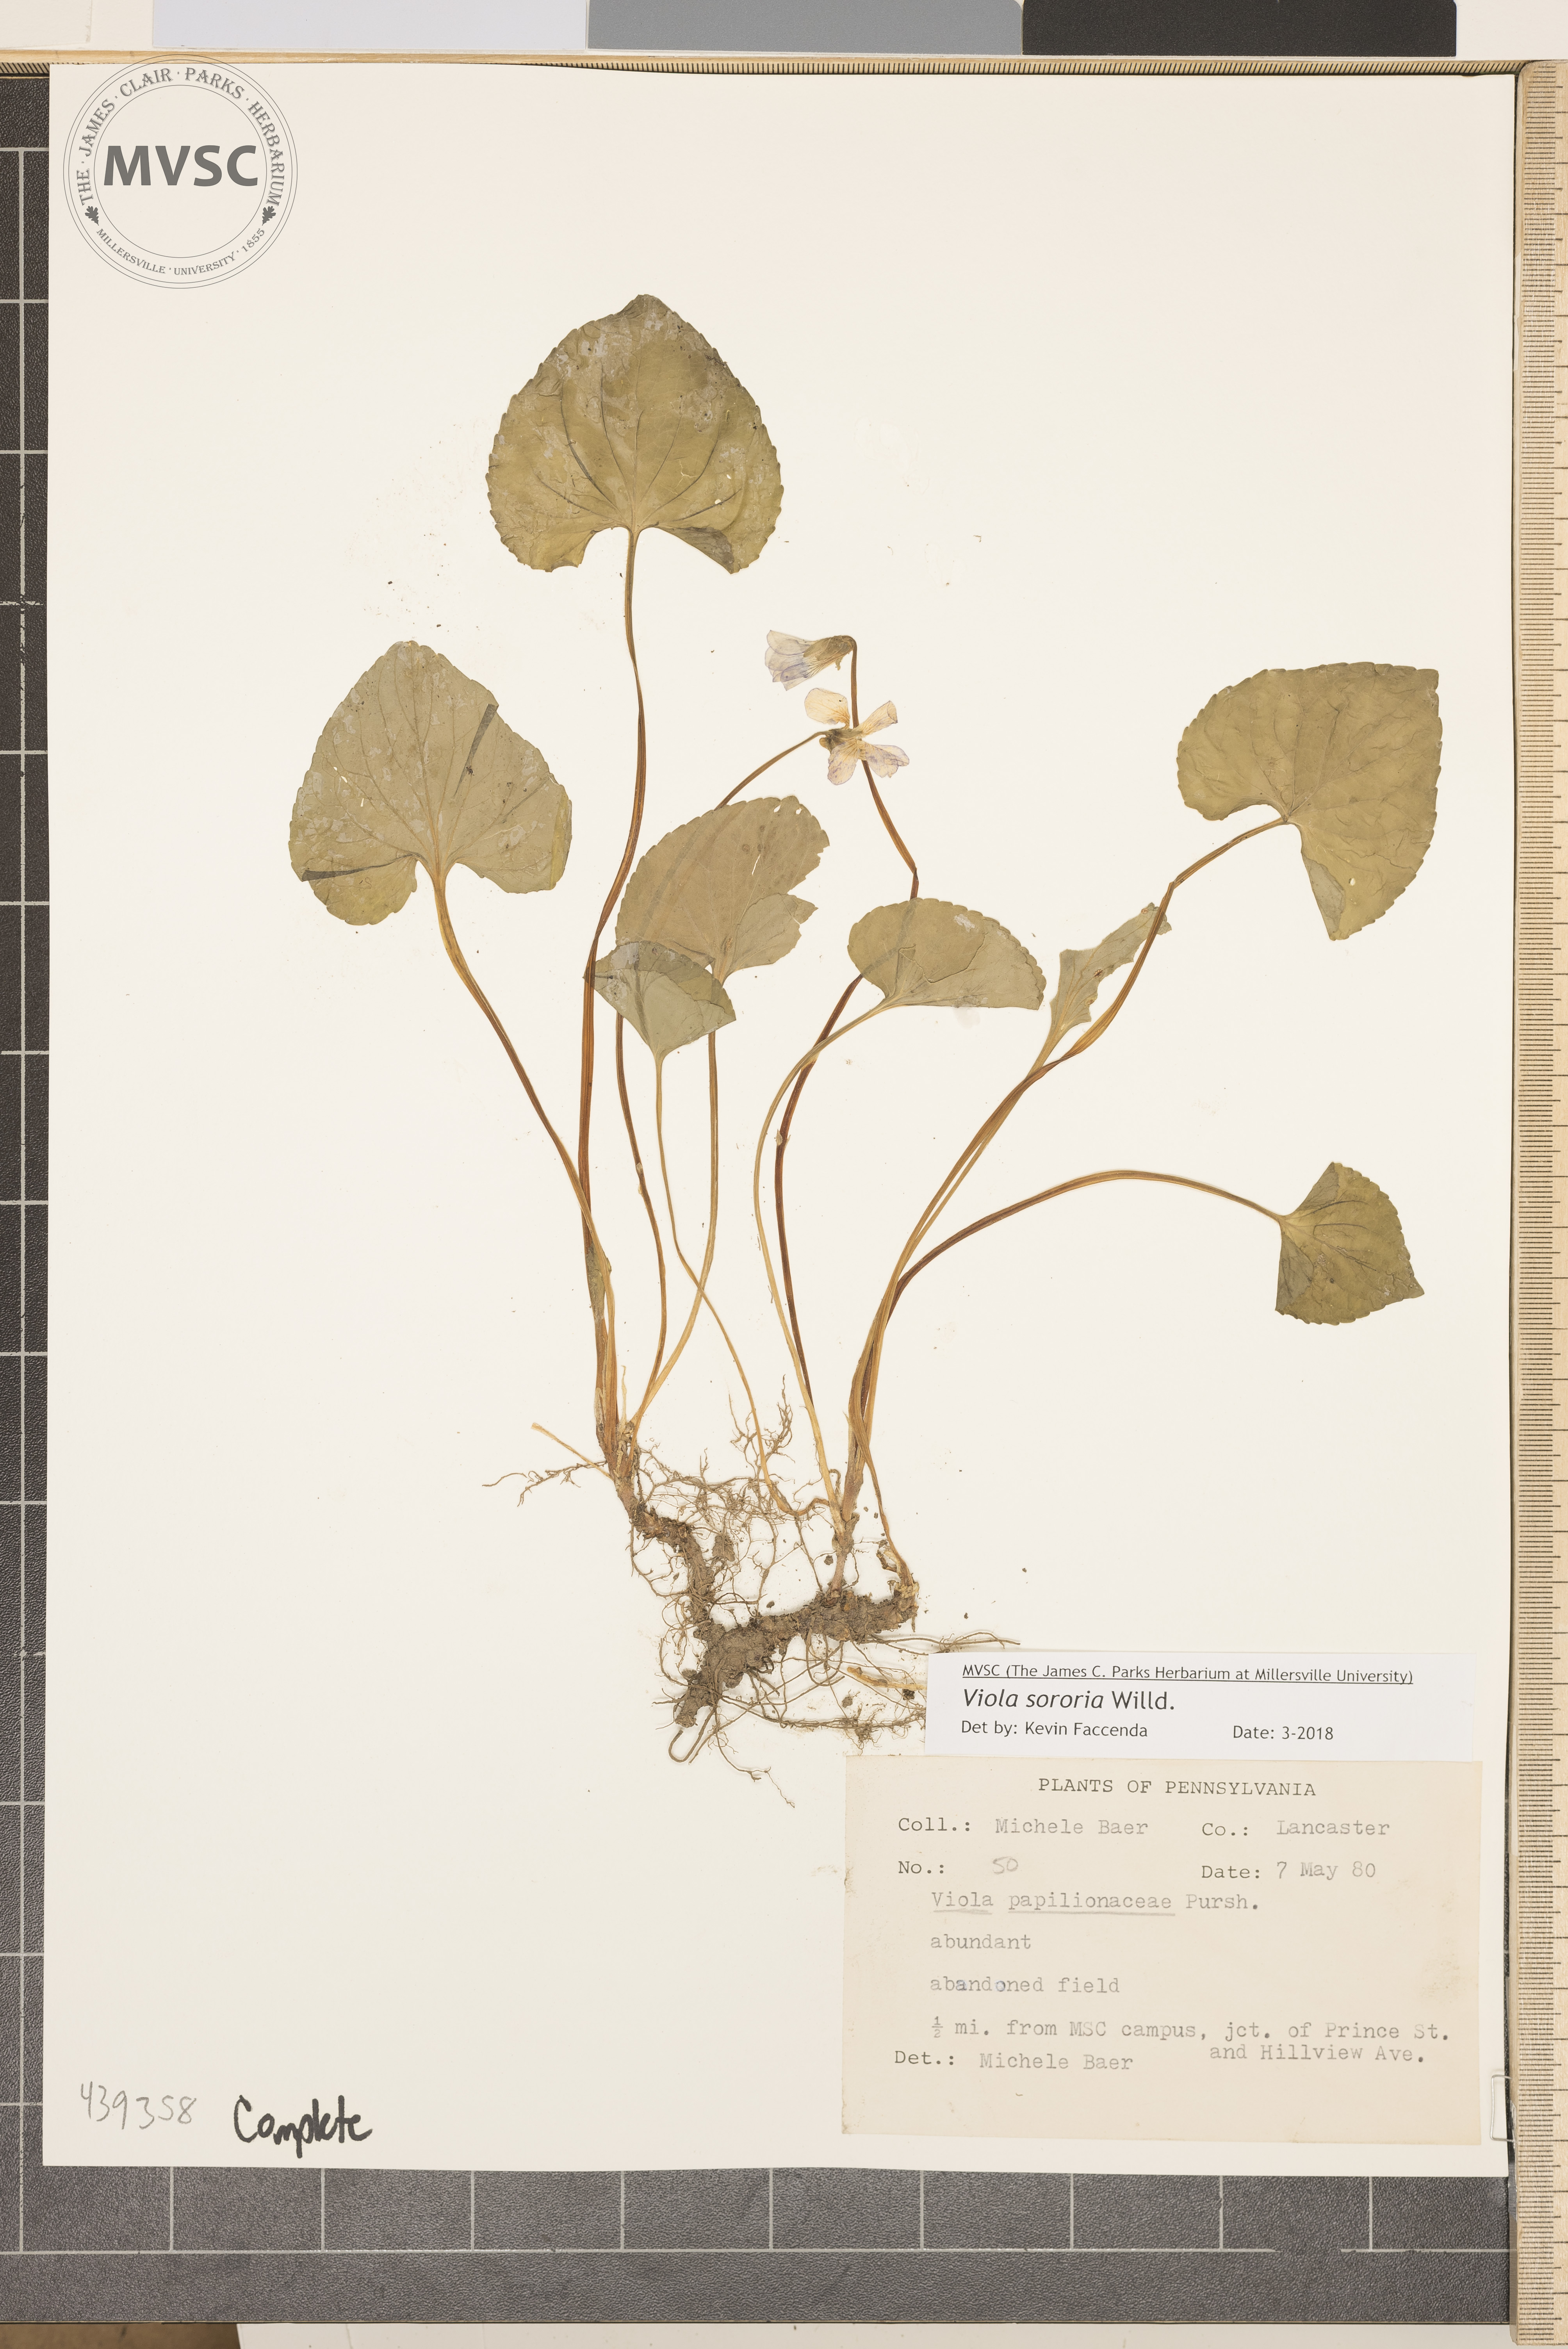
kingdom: Plantae
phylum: Tracheophyta
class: Magnoliopsida
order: Malpighiales
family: Violaceae
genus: Viola
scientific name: Viola sororia
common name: Blue violet
